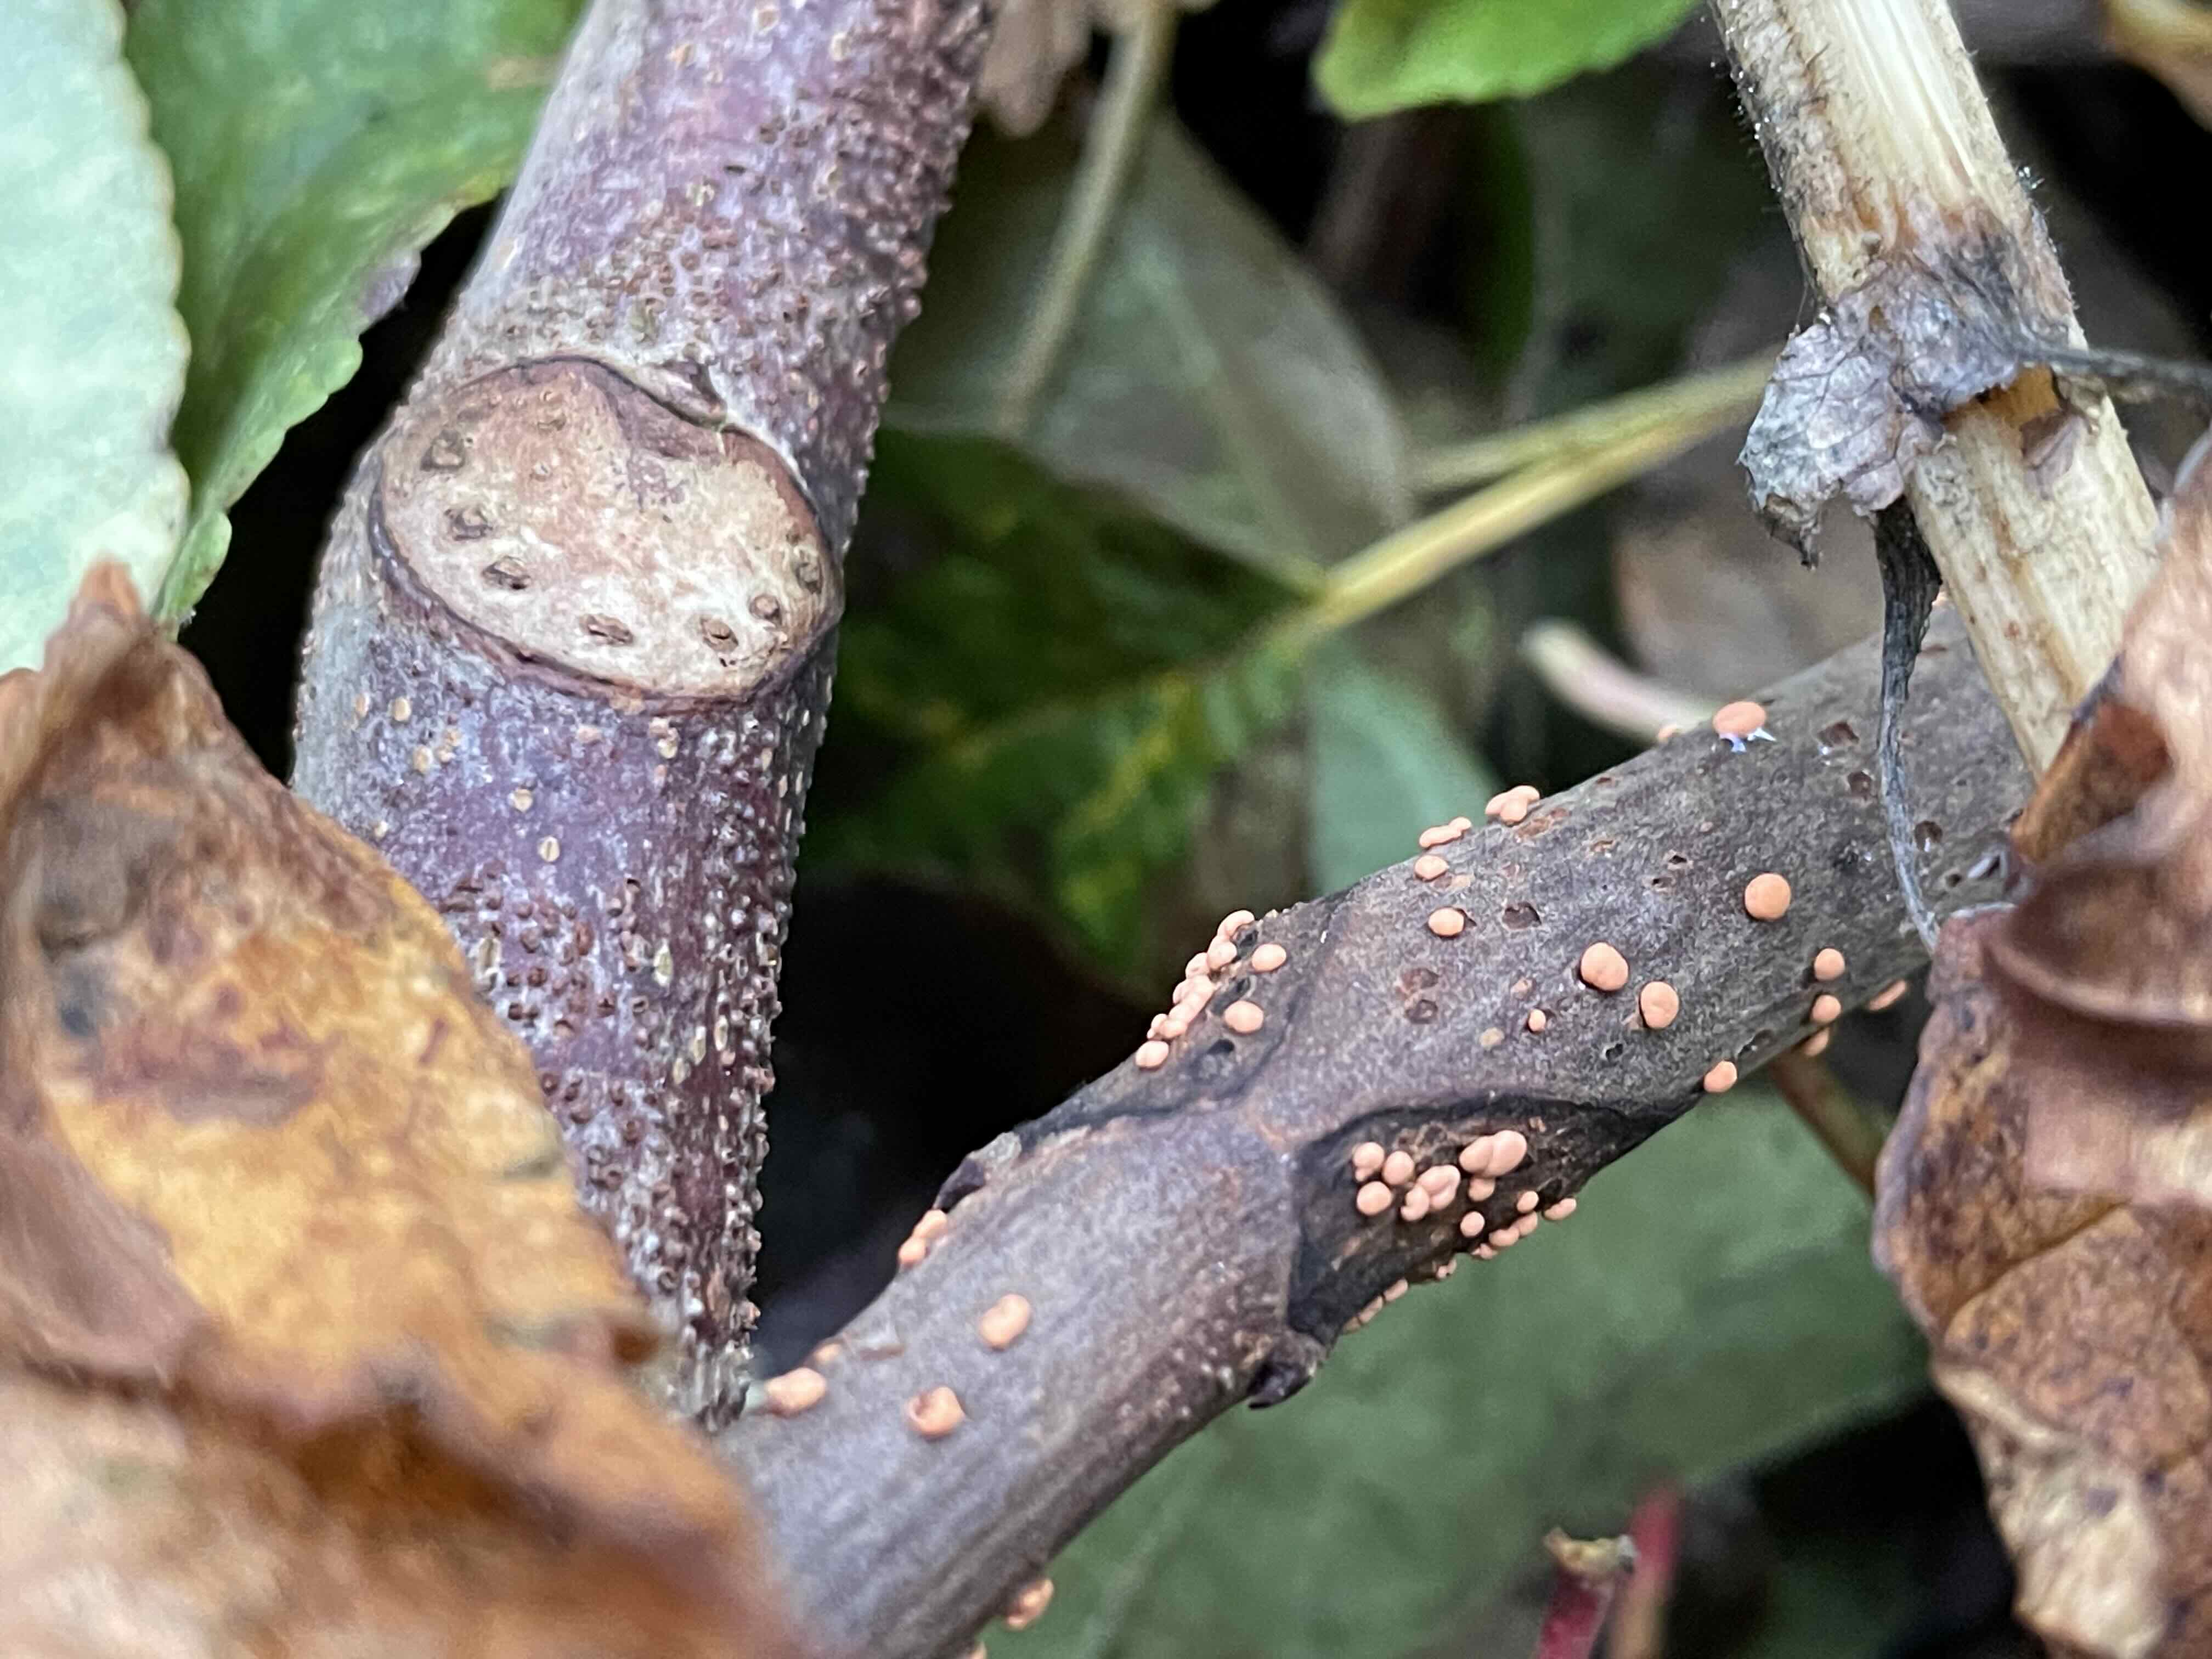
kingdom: Fungi
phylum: Ascomycota
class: Sordariomycetes
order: Hypocreales
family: Nectriaceae
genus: Nectria
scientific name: Nectria cinnabarina
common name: almindelig cinnobersvamp
